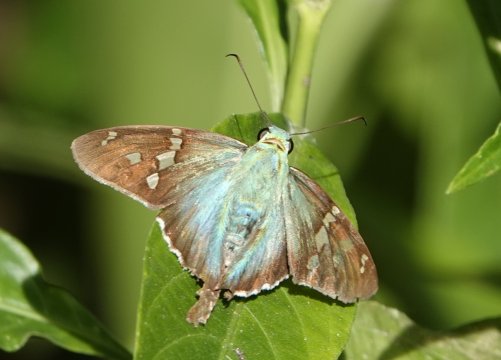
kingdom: Animalia
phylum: Arthropoda
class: Insecta
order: Lepidoptera
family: Hesperiidae
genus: Urbanus
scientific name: Urbanus esmeraldus
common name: Esmeralda Longtail
